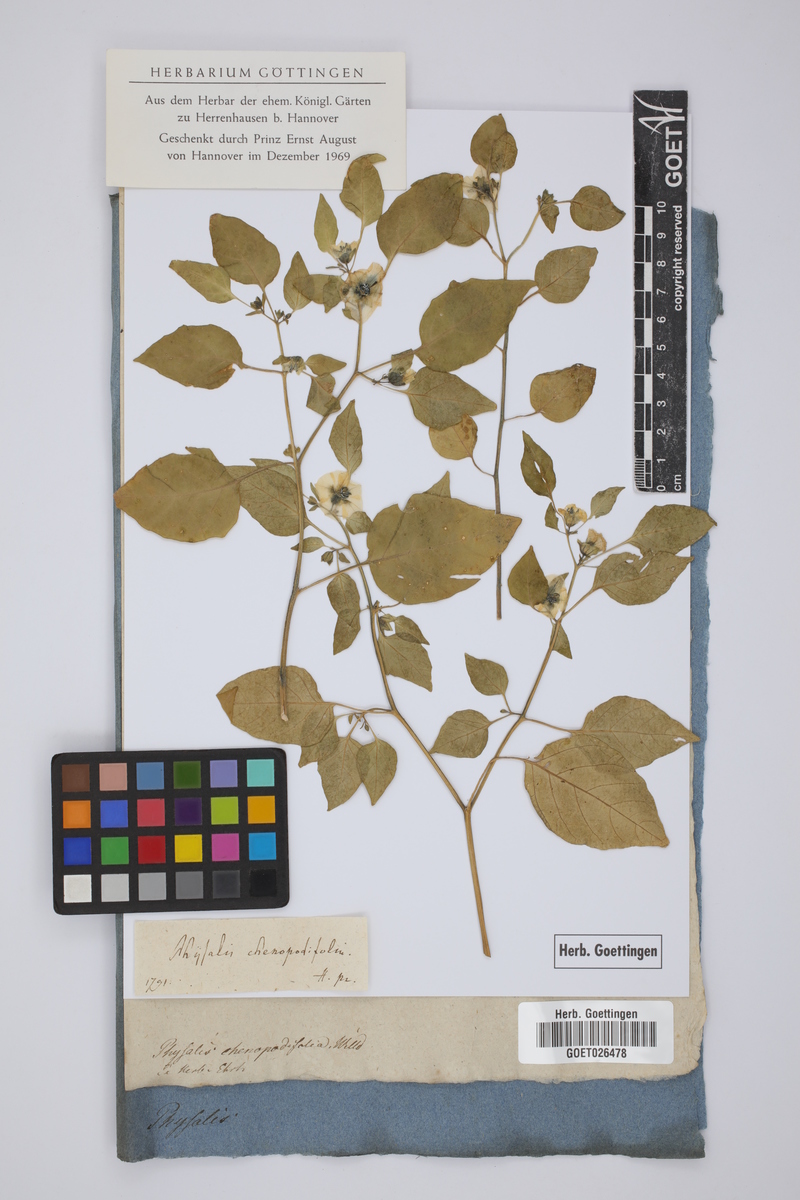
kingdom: Plantae
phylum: Tracheophyta
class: Magnoliopsida
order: Solanales
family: Solanaceae
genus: Physalis
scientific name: Physalis peruviana
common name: Cape-gooseberry
